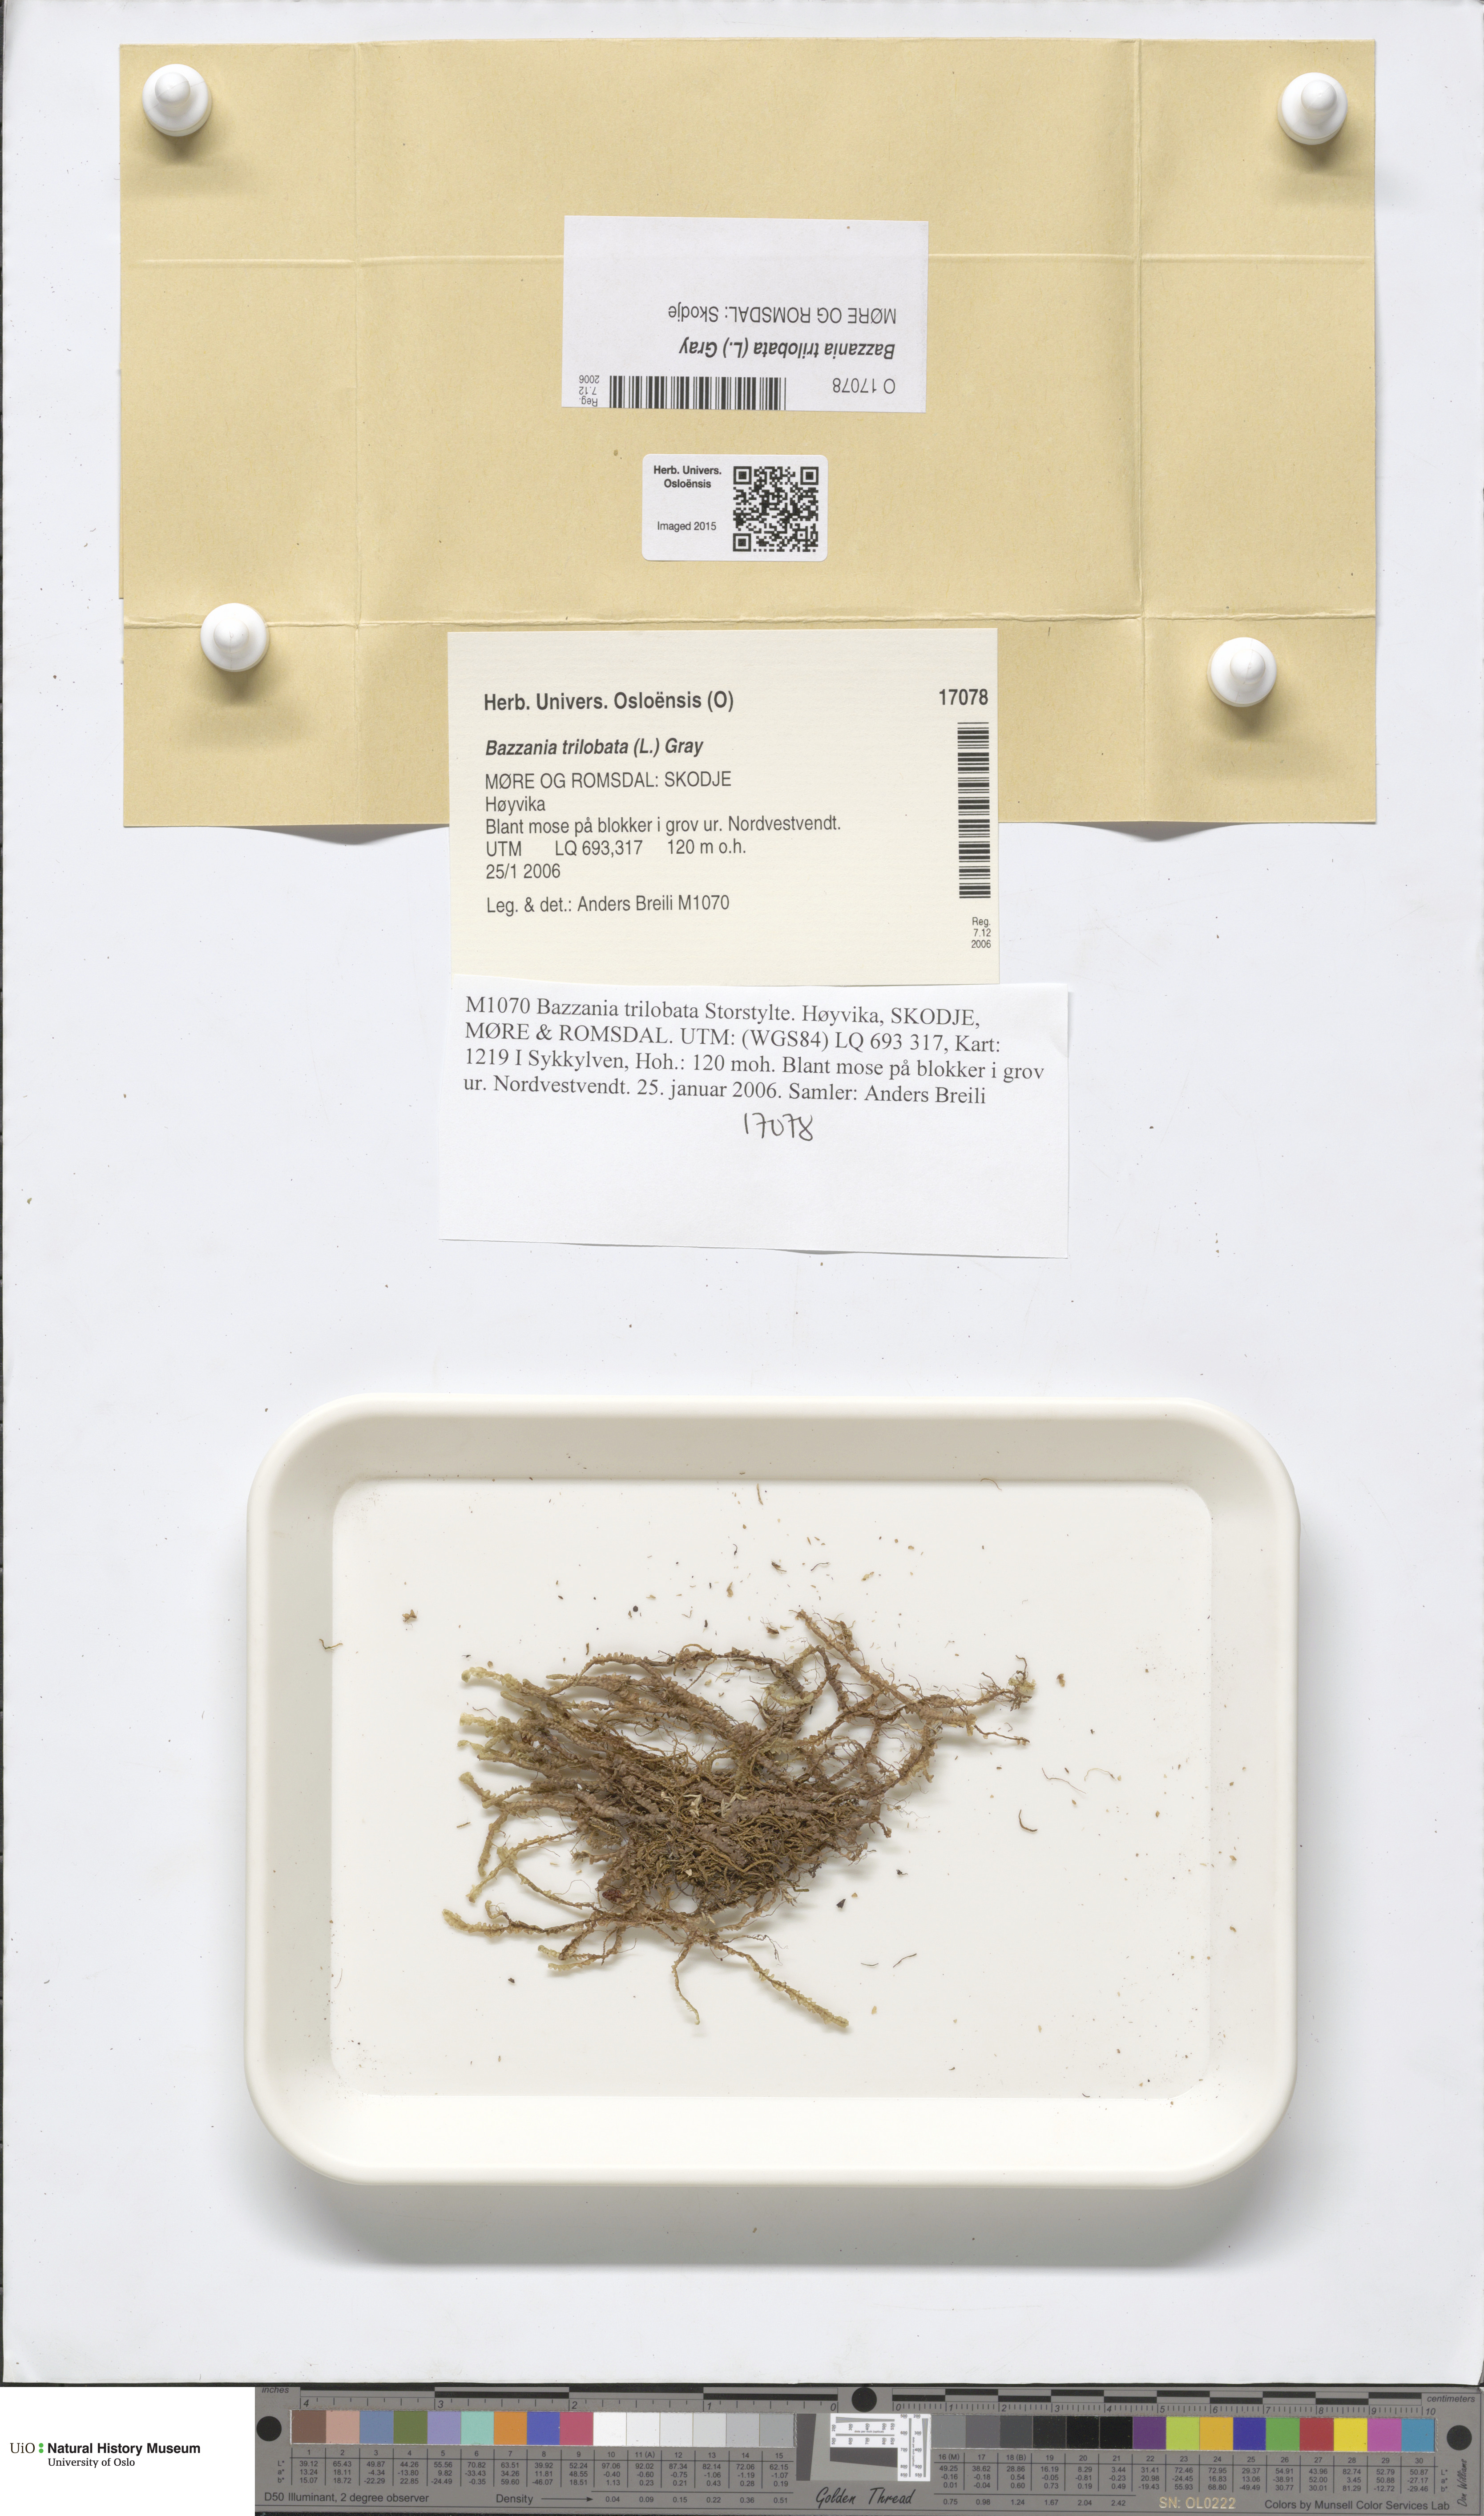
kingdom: Plantae
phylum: Marchantiophyta
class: Jungermanniopsida
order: Jungermanniales
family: Lepidoziaceae
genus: Bazzania
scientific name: Bazzania trilobata
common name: Three-lobed whipwort
